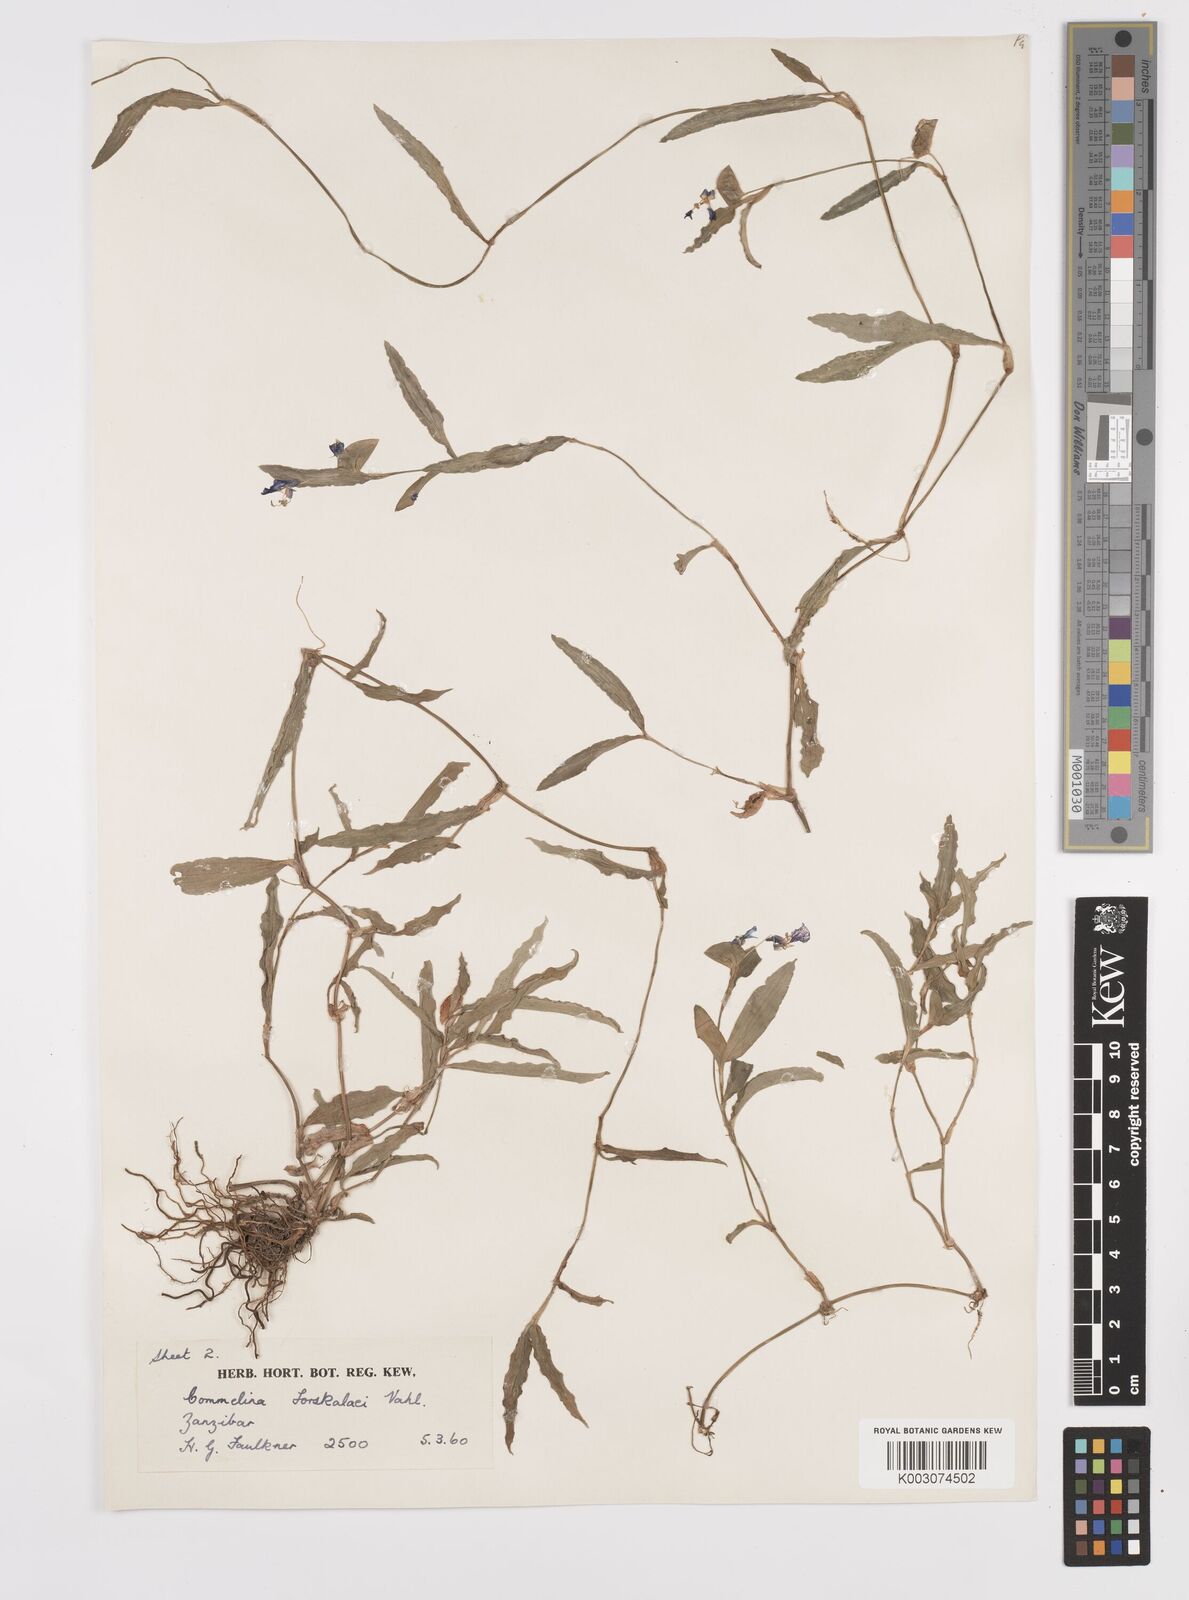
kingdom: Plantae
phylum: Tracheophyta
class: Liliopsida
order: Commelinales
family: Commelinaceae
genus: Commelina
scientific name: Commelina forskaolii
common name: Rat's ear
